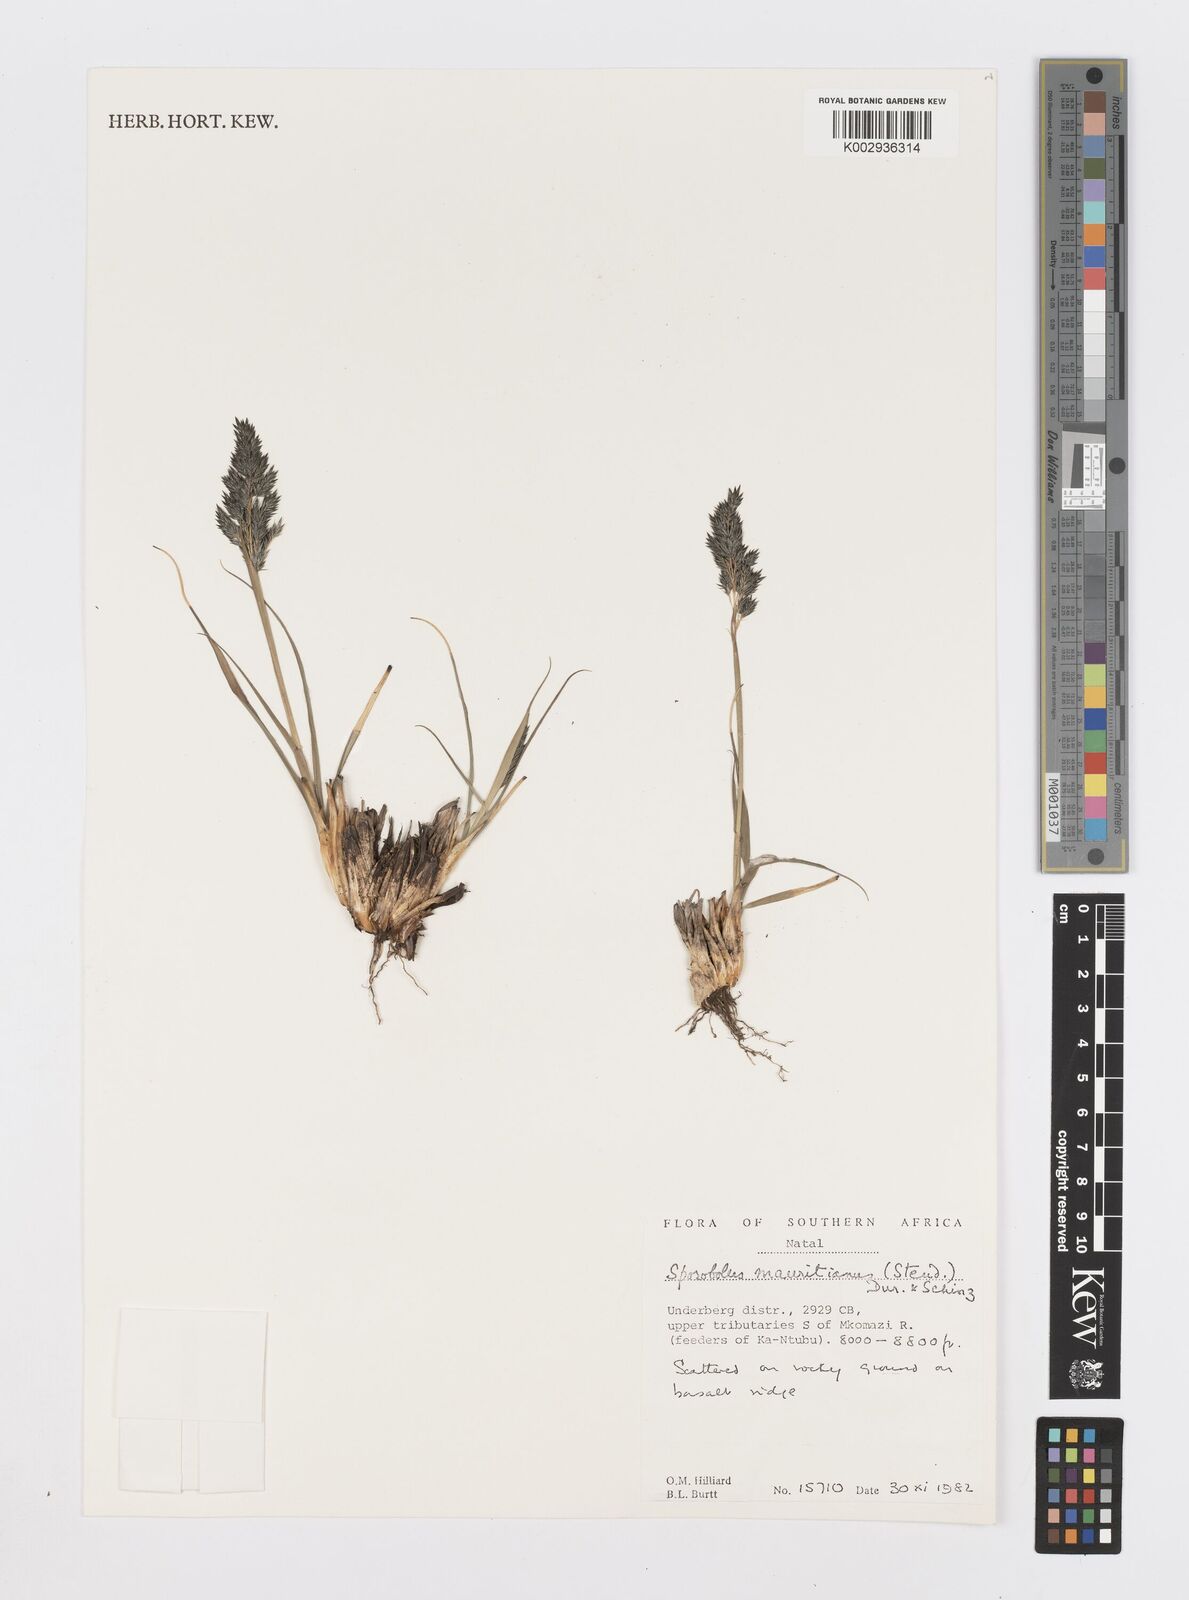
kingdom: Plantae
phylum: Tracheophyta
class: Liliopsida
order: Poales
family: Poaceae
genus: Sporobolus
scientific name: Sporobolus subulatus
